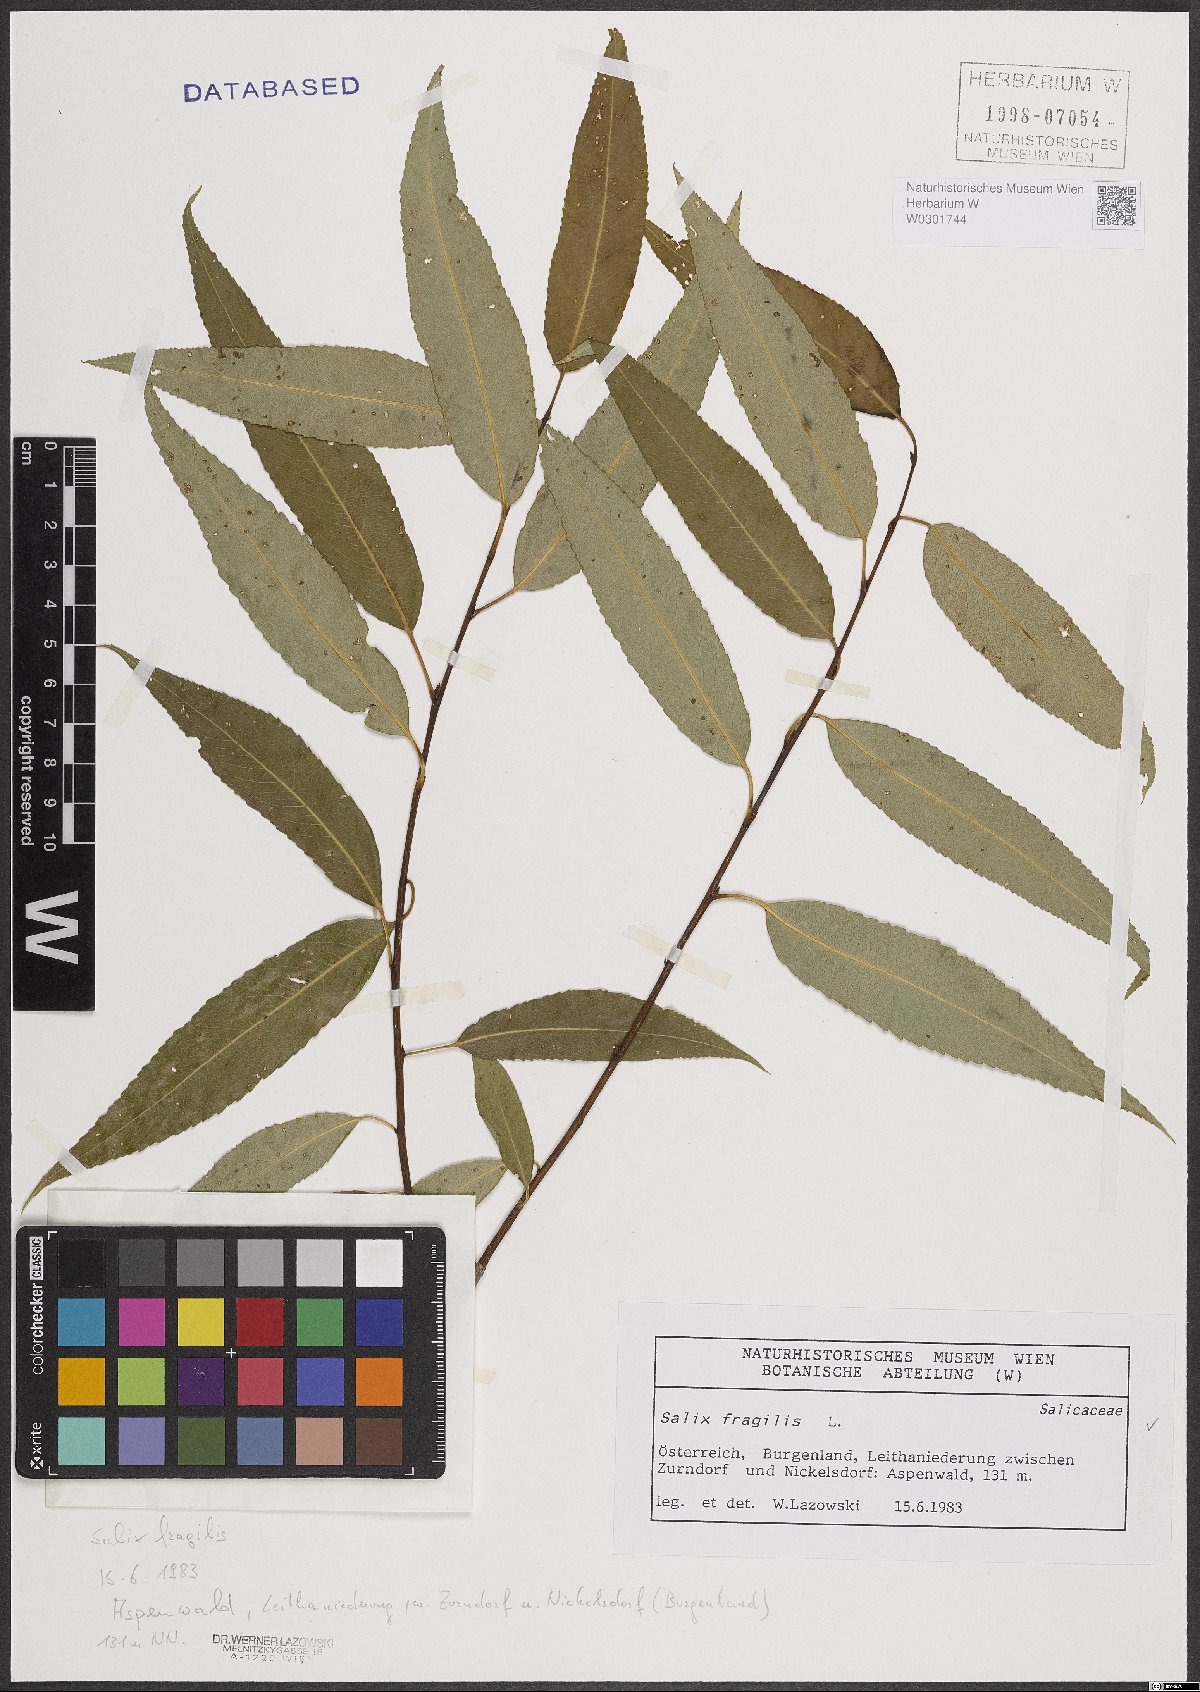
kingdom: Plantae
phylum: Tracheophyta
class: Magnoliopsida
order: Malpighiales
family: Salicaceae
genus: Salix
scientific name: Salix fragilis
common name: Crack willow
